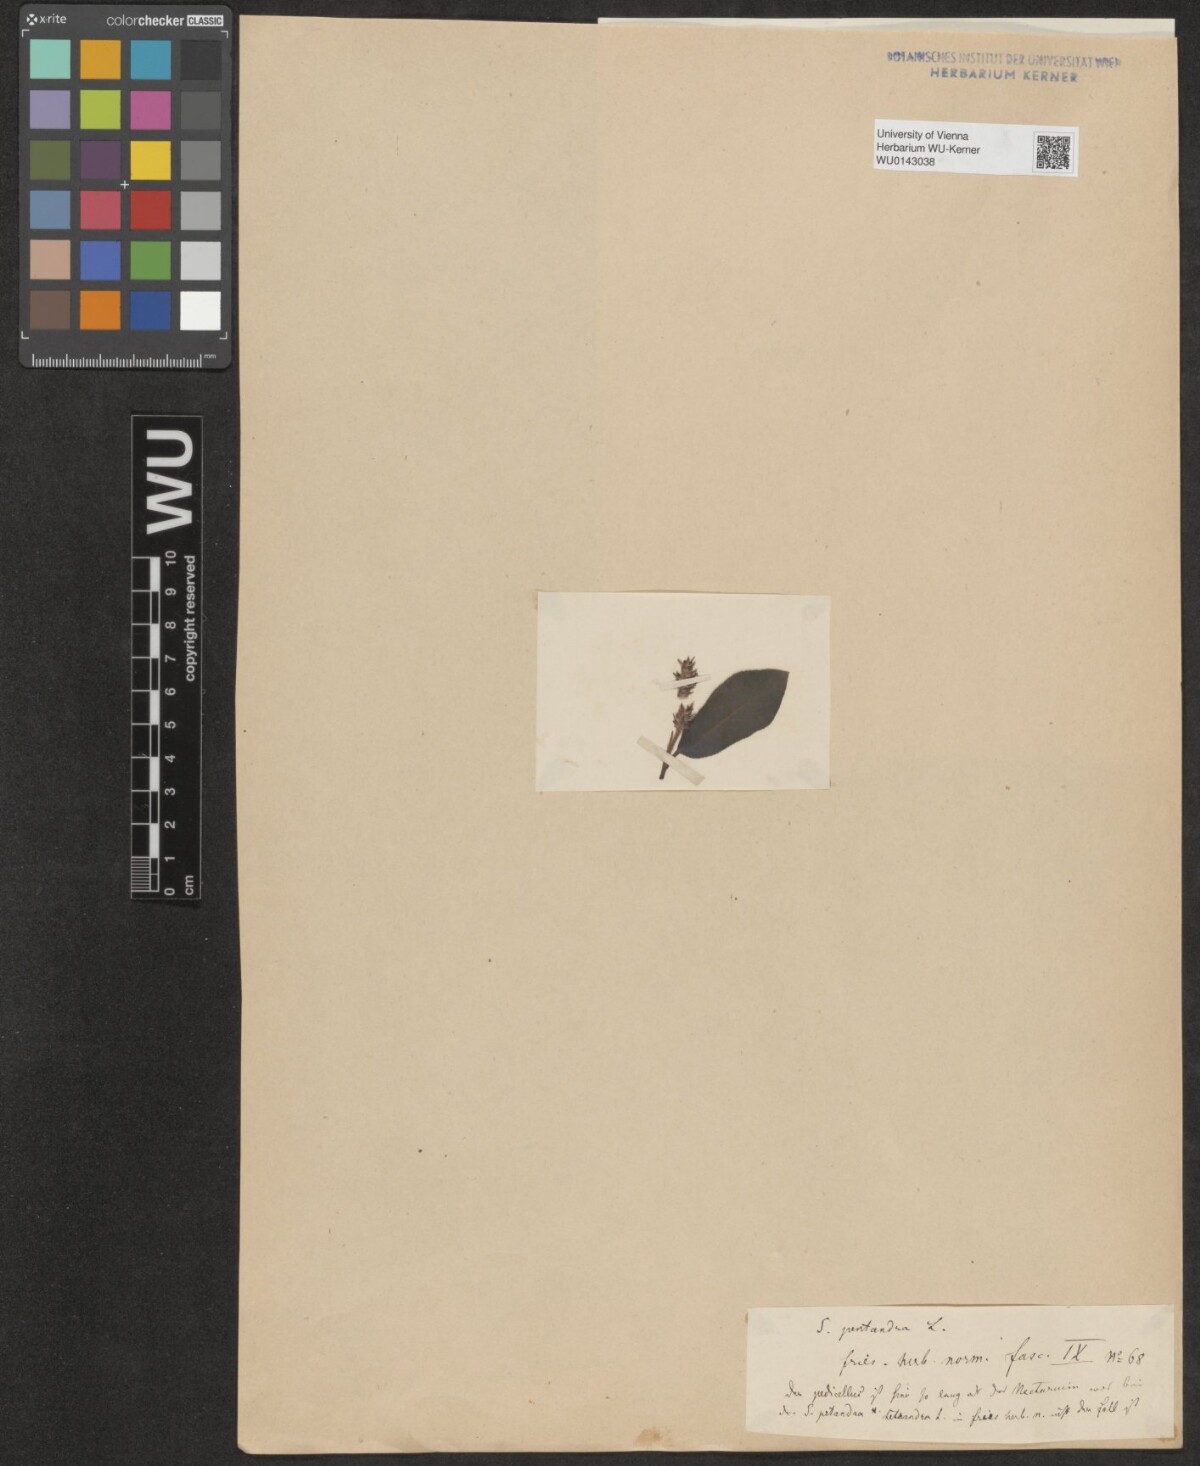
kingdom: Plantae
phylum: Tracheophyta
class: Magnoliopsida
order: Malpighiales
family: Salicaceae
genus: Salix
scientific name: Salix pentandra
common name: Bay willow
